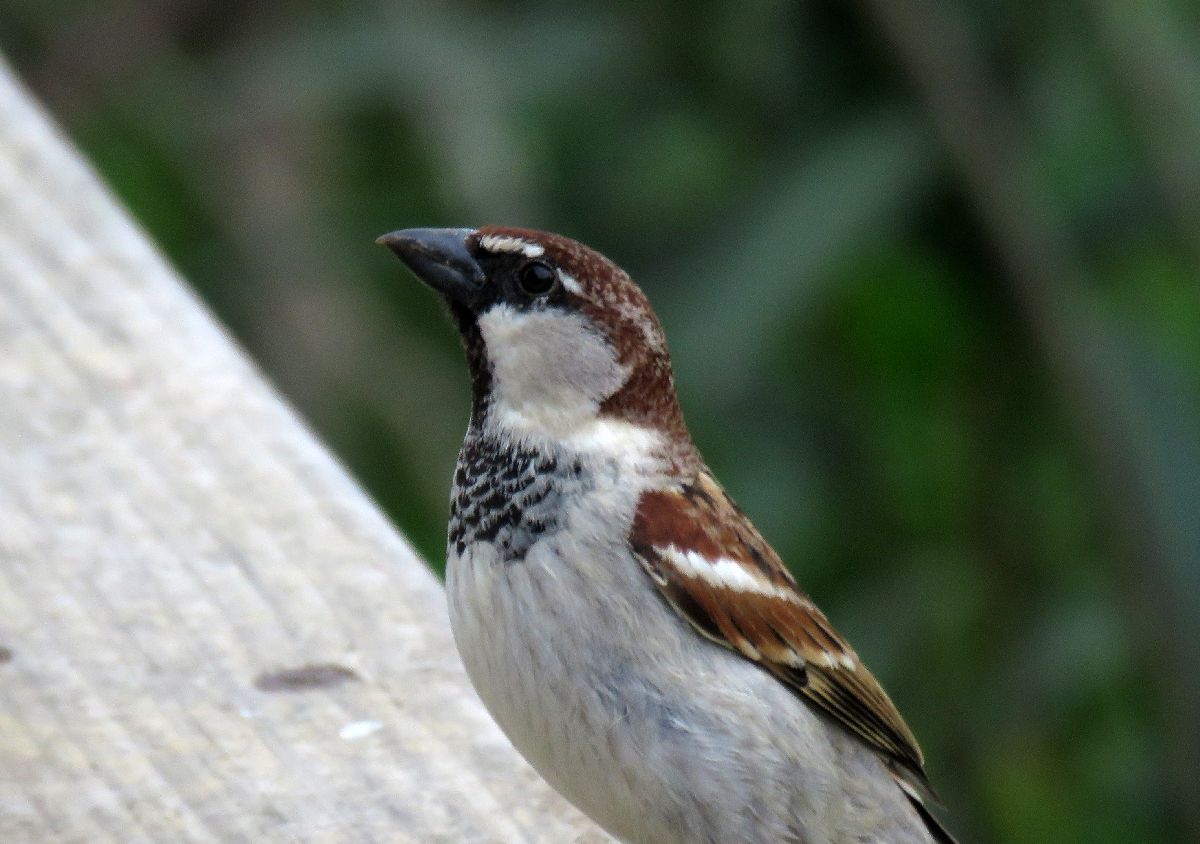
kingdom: Animalia
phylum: Chordata
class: Aves
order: Passeriformes
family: Passeridae
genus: Passer
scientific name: Passer italiae
